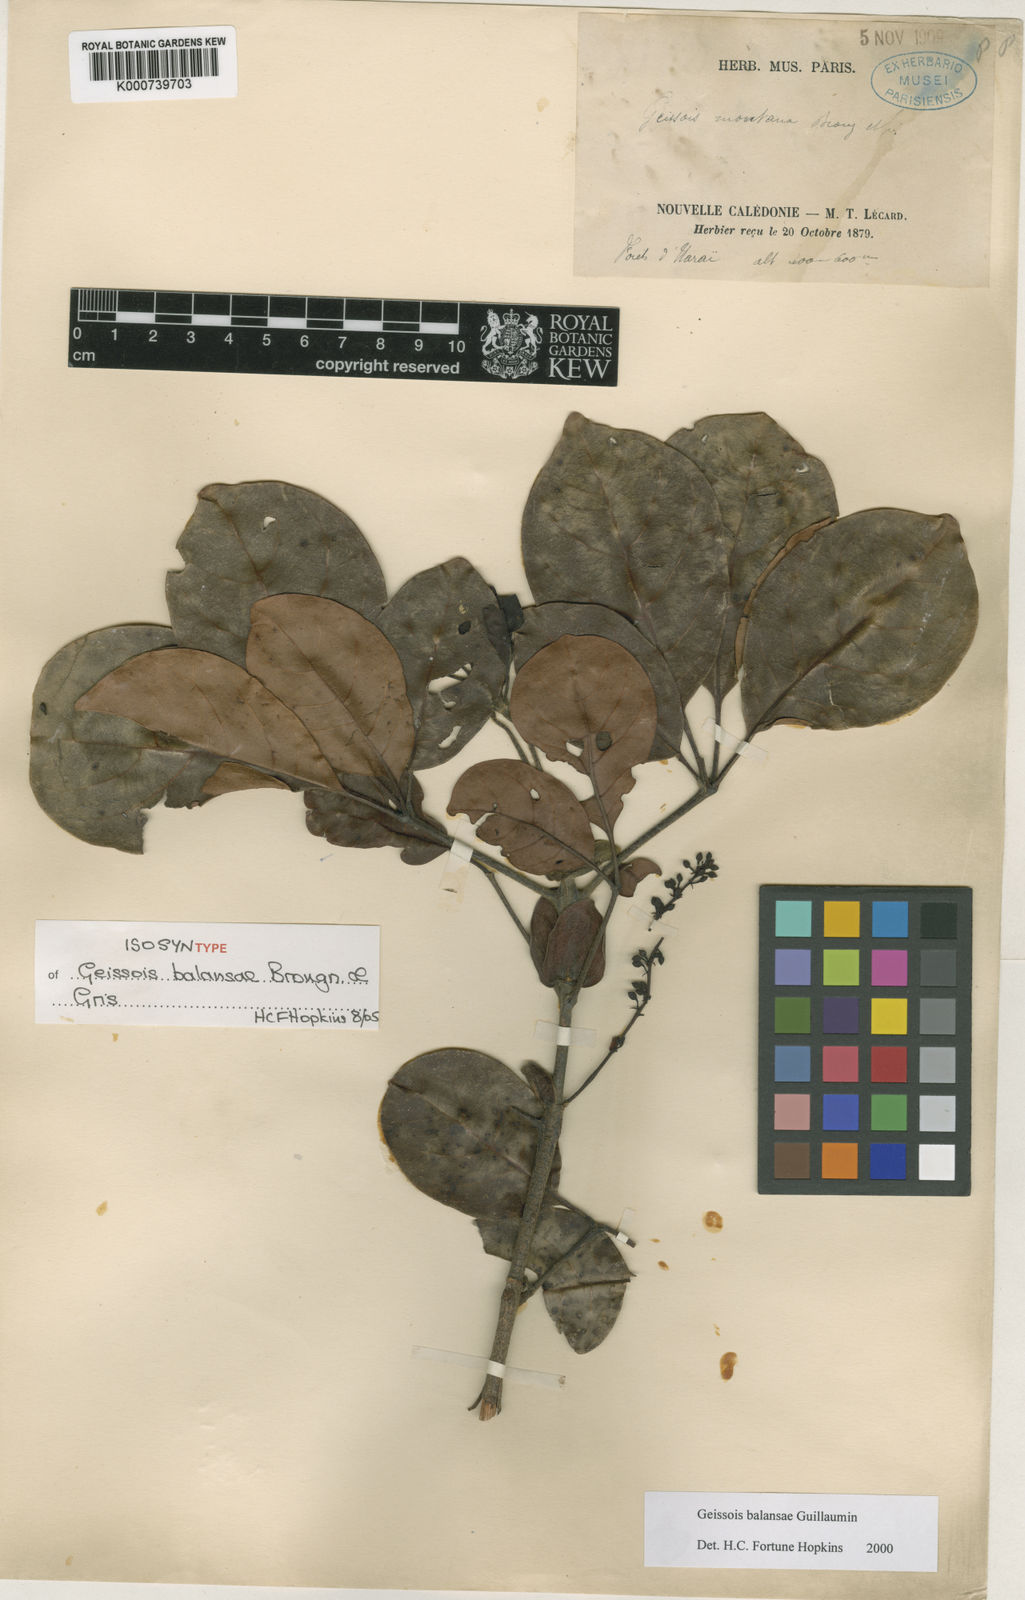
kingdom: Plantae
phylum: Tracheophyta
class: Magnoliopsida
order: Oxalidales
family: Cunoniaceae
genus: Geissois
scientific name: Geissois balansae
